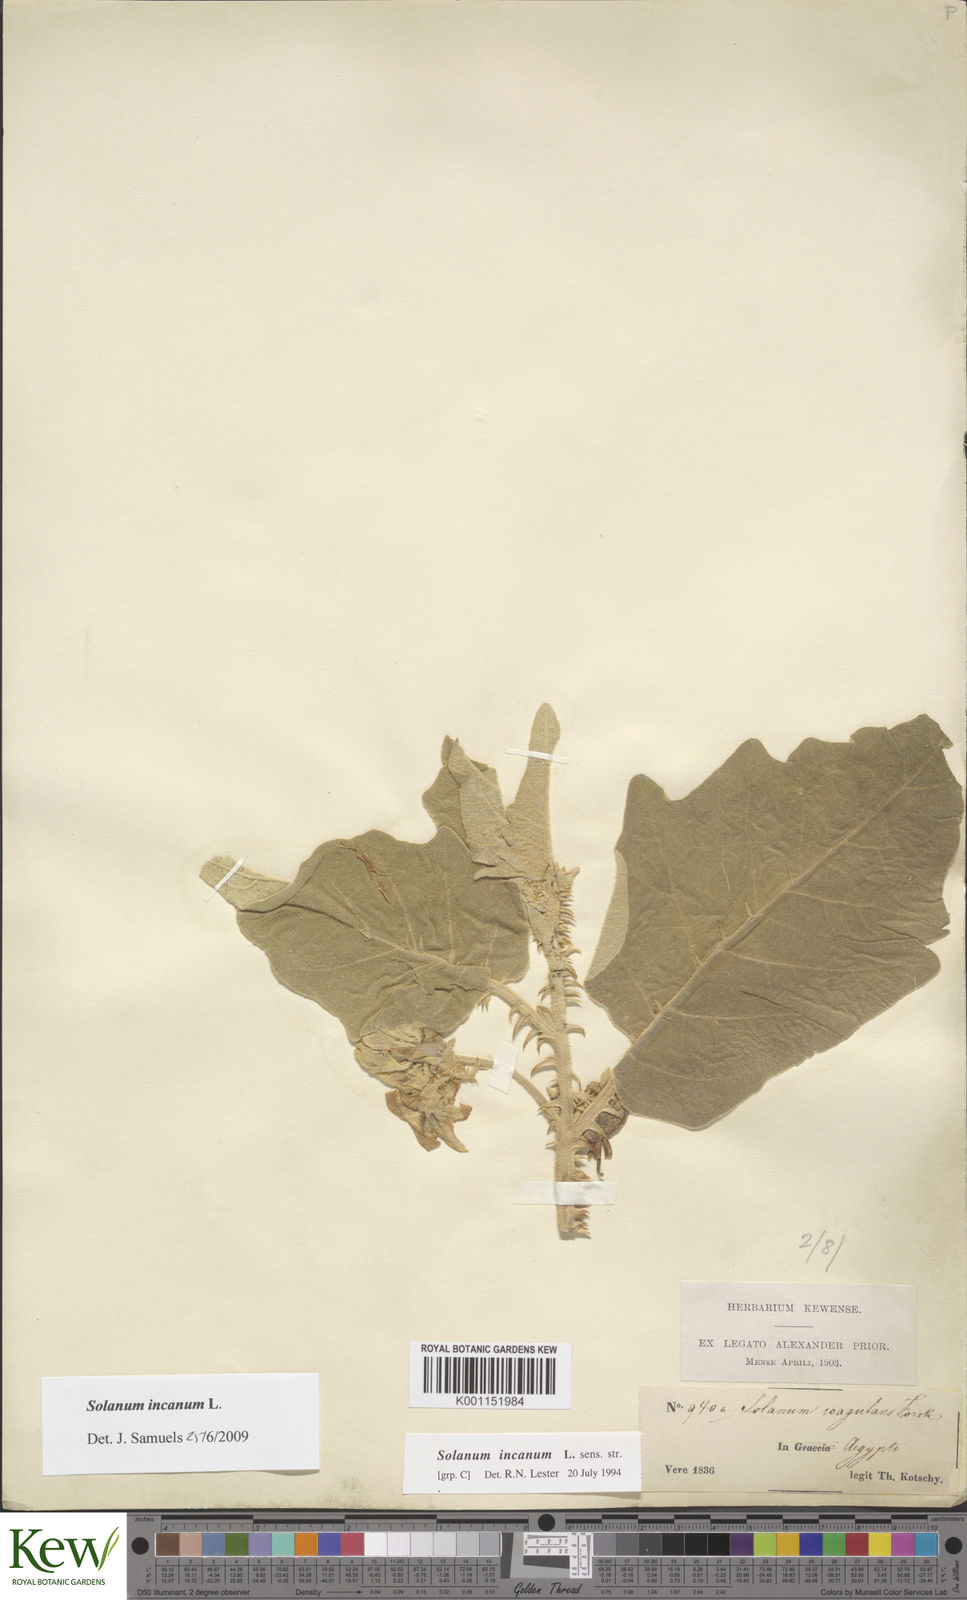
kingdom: Plantae
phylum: Tracheophyta
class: Magnoliopsida
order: Solanales
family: Solanaceae
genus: Solanum
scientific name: Solanum incanum
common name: Bitter apple
